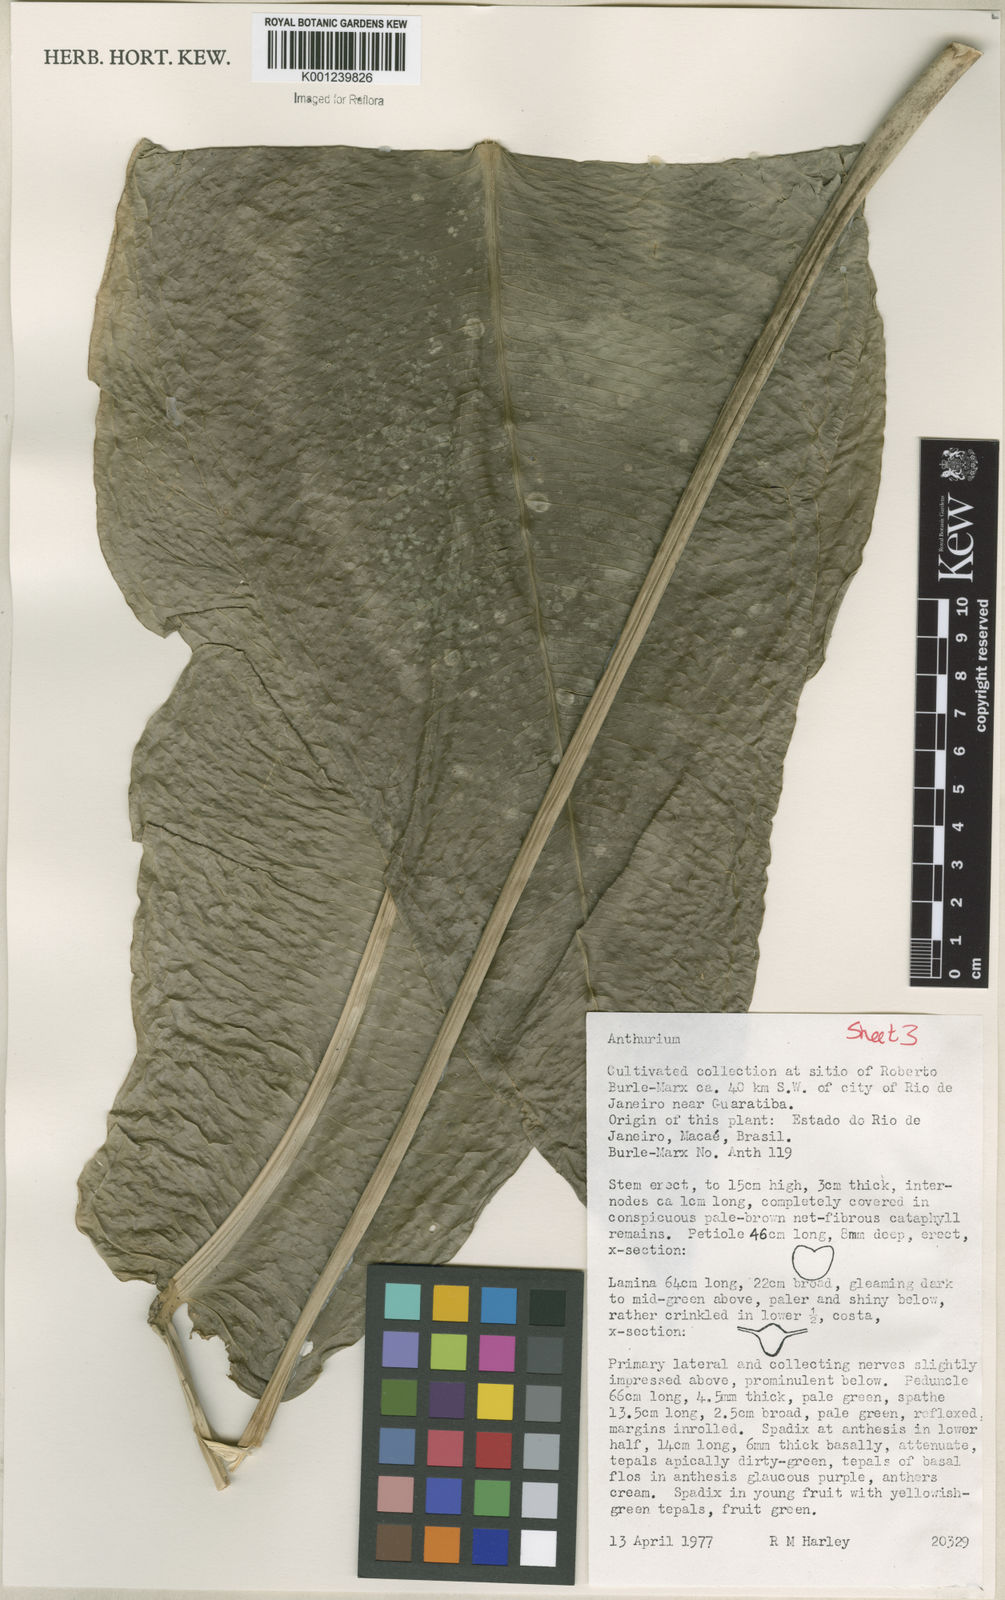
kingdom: Plantae
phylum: Tracheophyta
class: Liliopsida
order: Alismatales
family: Araceae
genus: Anthurium
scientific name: Anthurium
